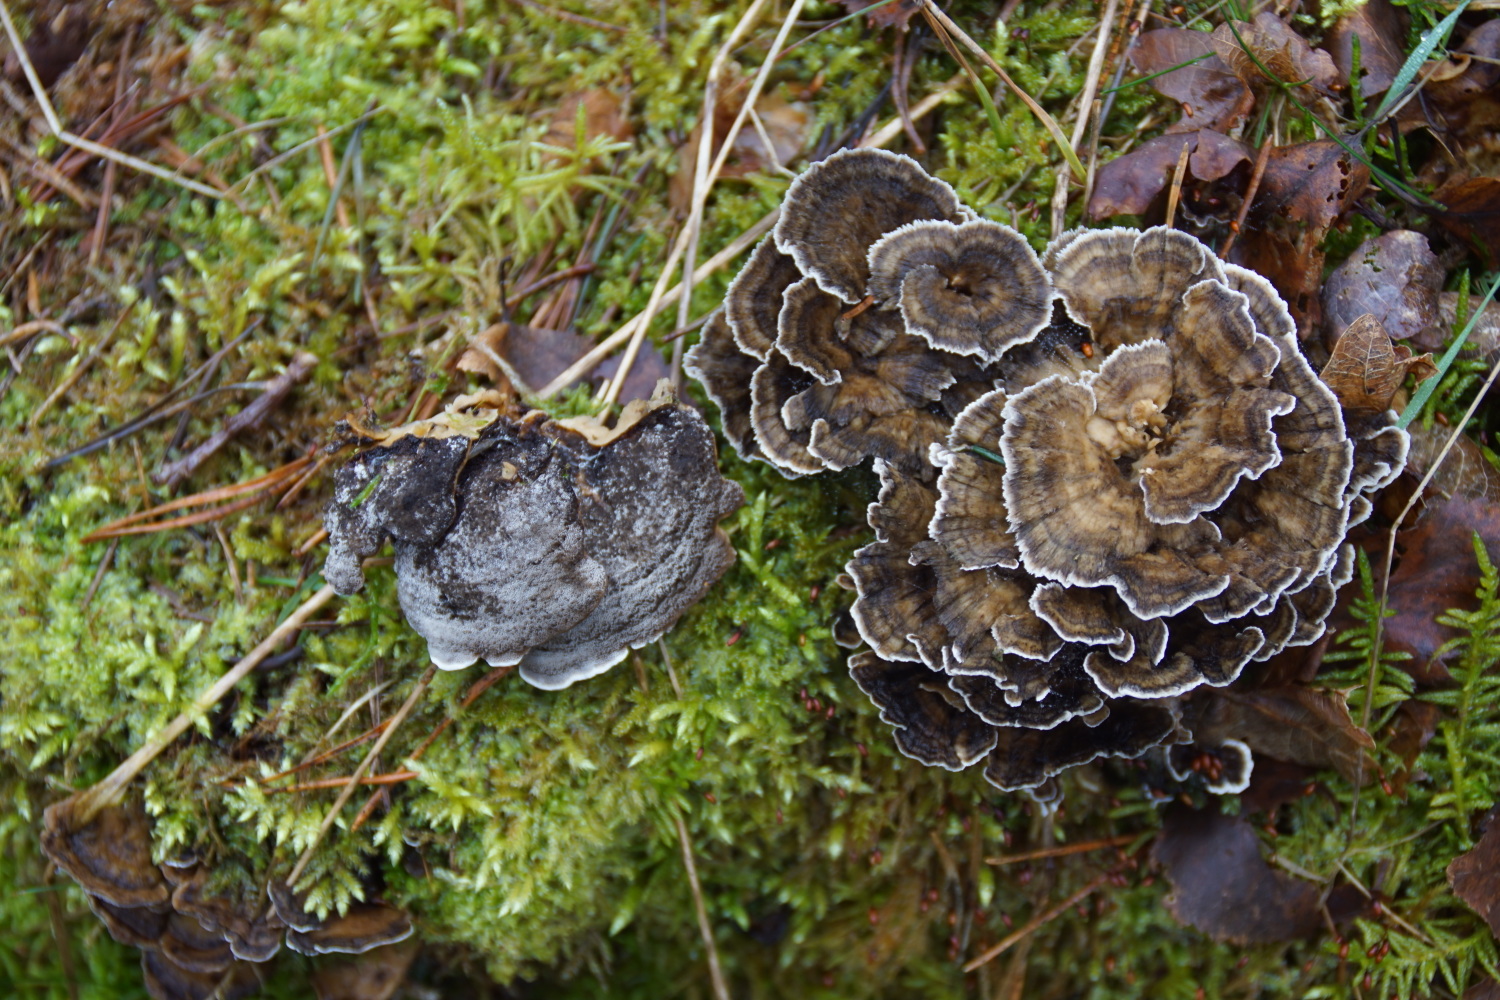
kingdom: Fungi
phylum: Basidiomycota
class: Agaricomycetes
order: Polyporales
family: Phanerochaetaceae
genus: Bjerkandera
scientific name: Bjerkandera adusta
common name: sveden sodporesvamp
